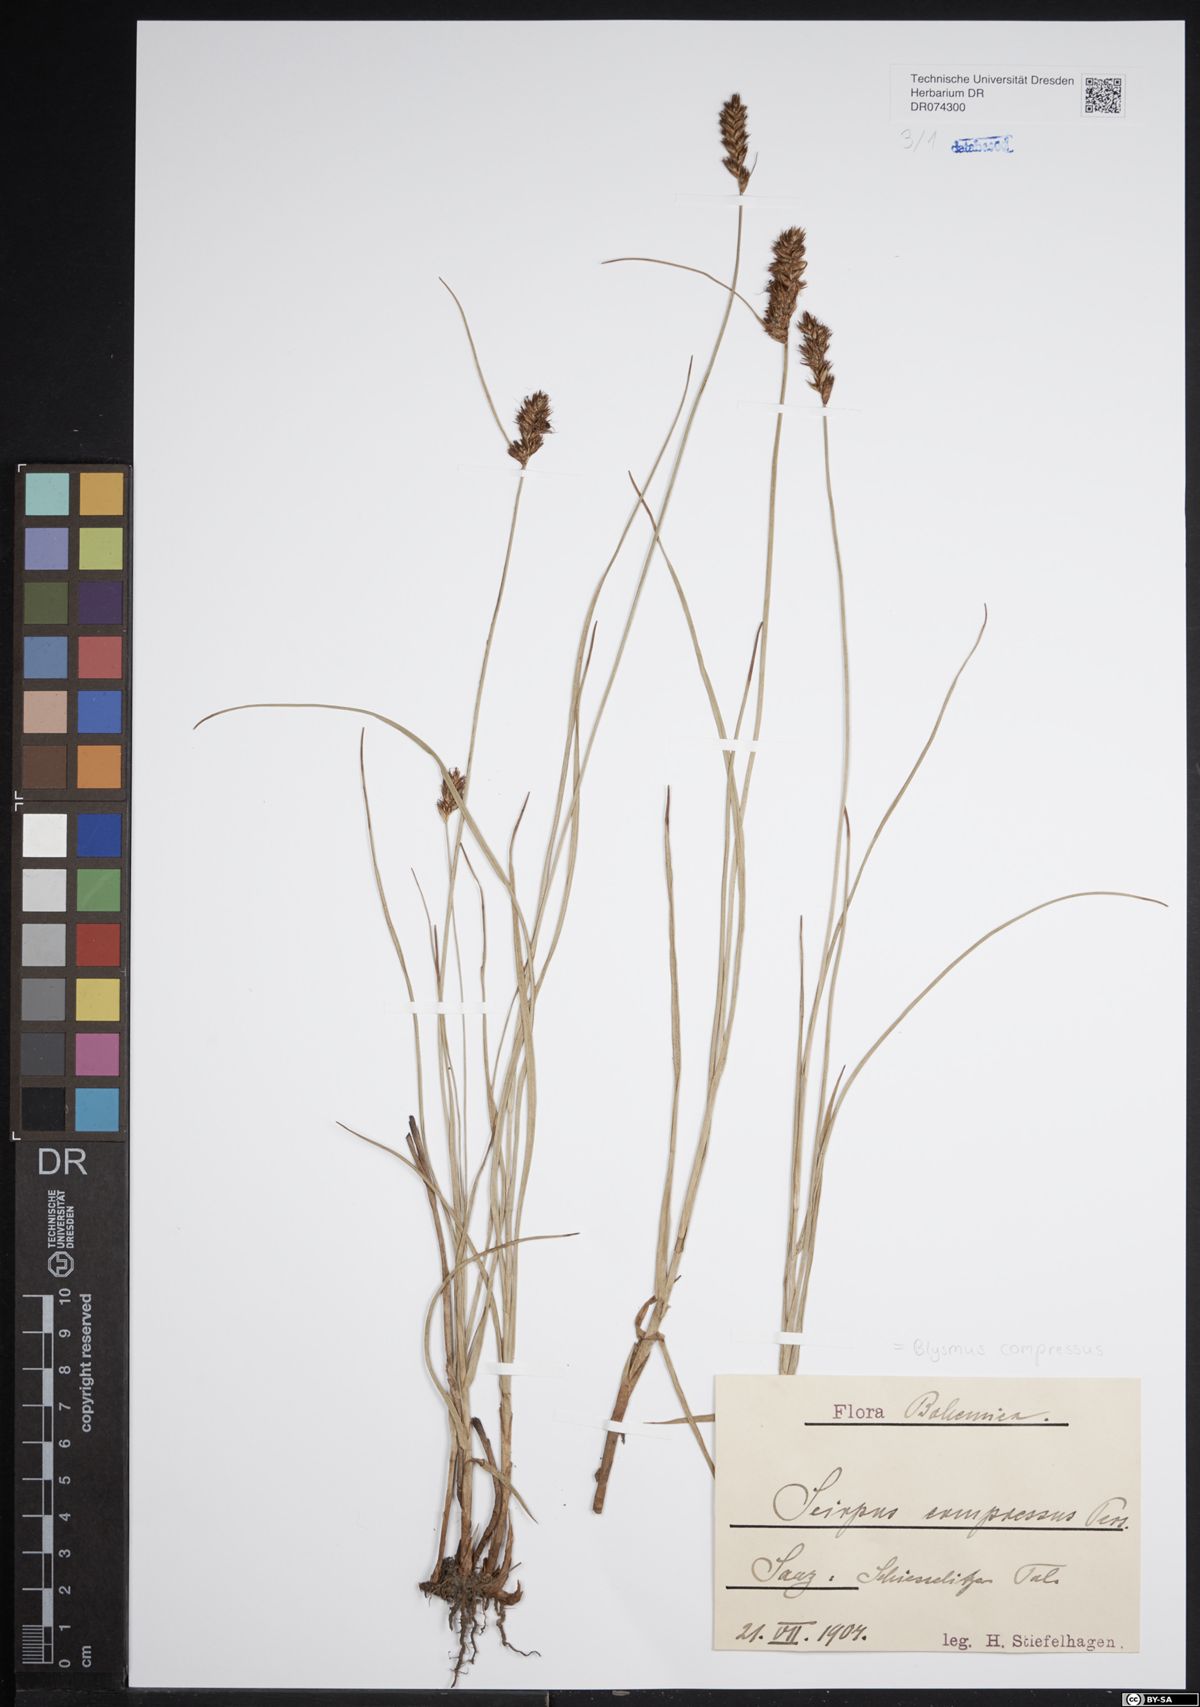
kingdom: Plantae
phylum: Tracheophyta
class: Liliopsida
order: Poales
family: Cyperaceae
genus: Blysmus
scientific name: Blysmus compressus
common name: Flat-sedge
